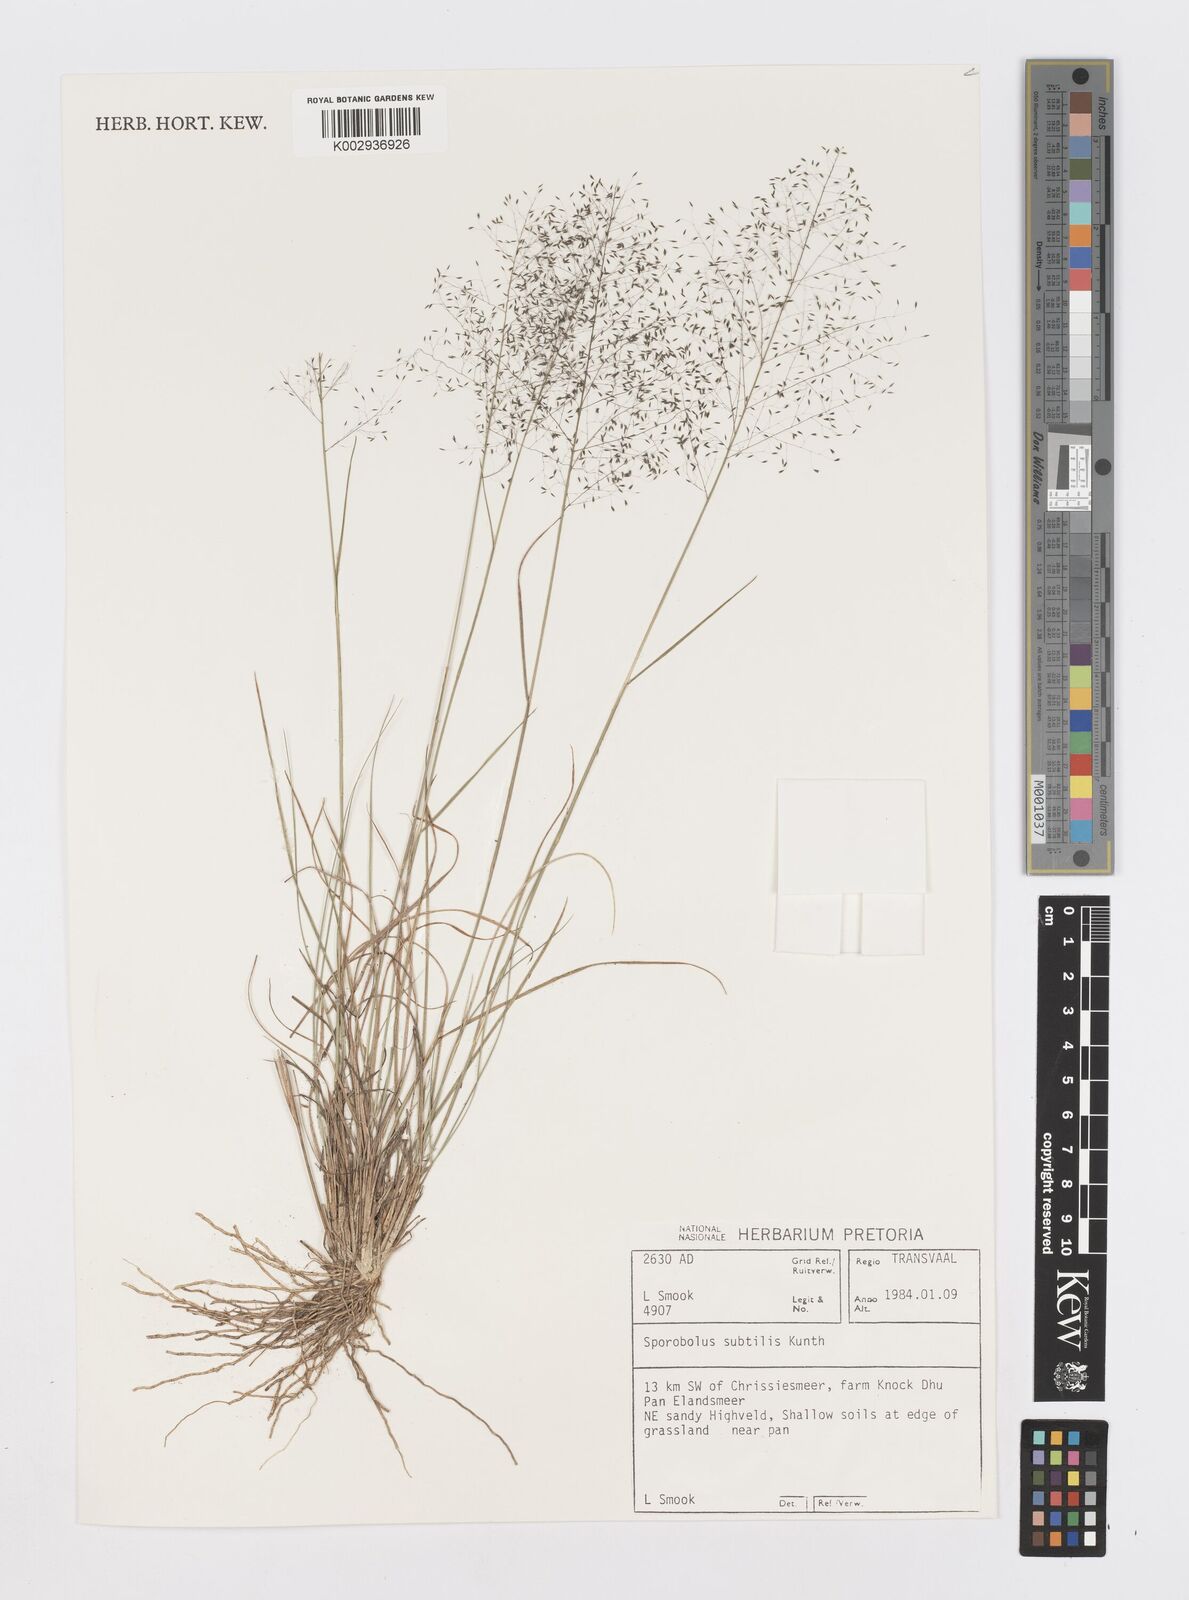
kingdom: Plantae
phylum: Tracheophyta
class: Liliopsida
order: Poales
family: Poaceae
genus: Sporobolus
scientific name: Sporobolus subtilis
